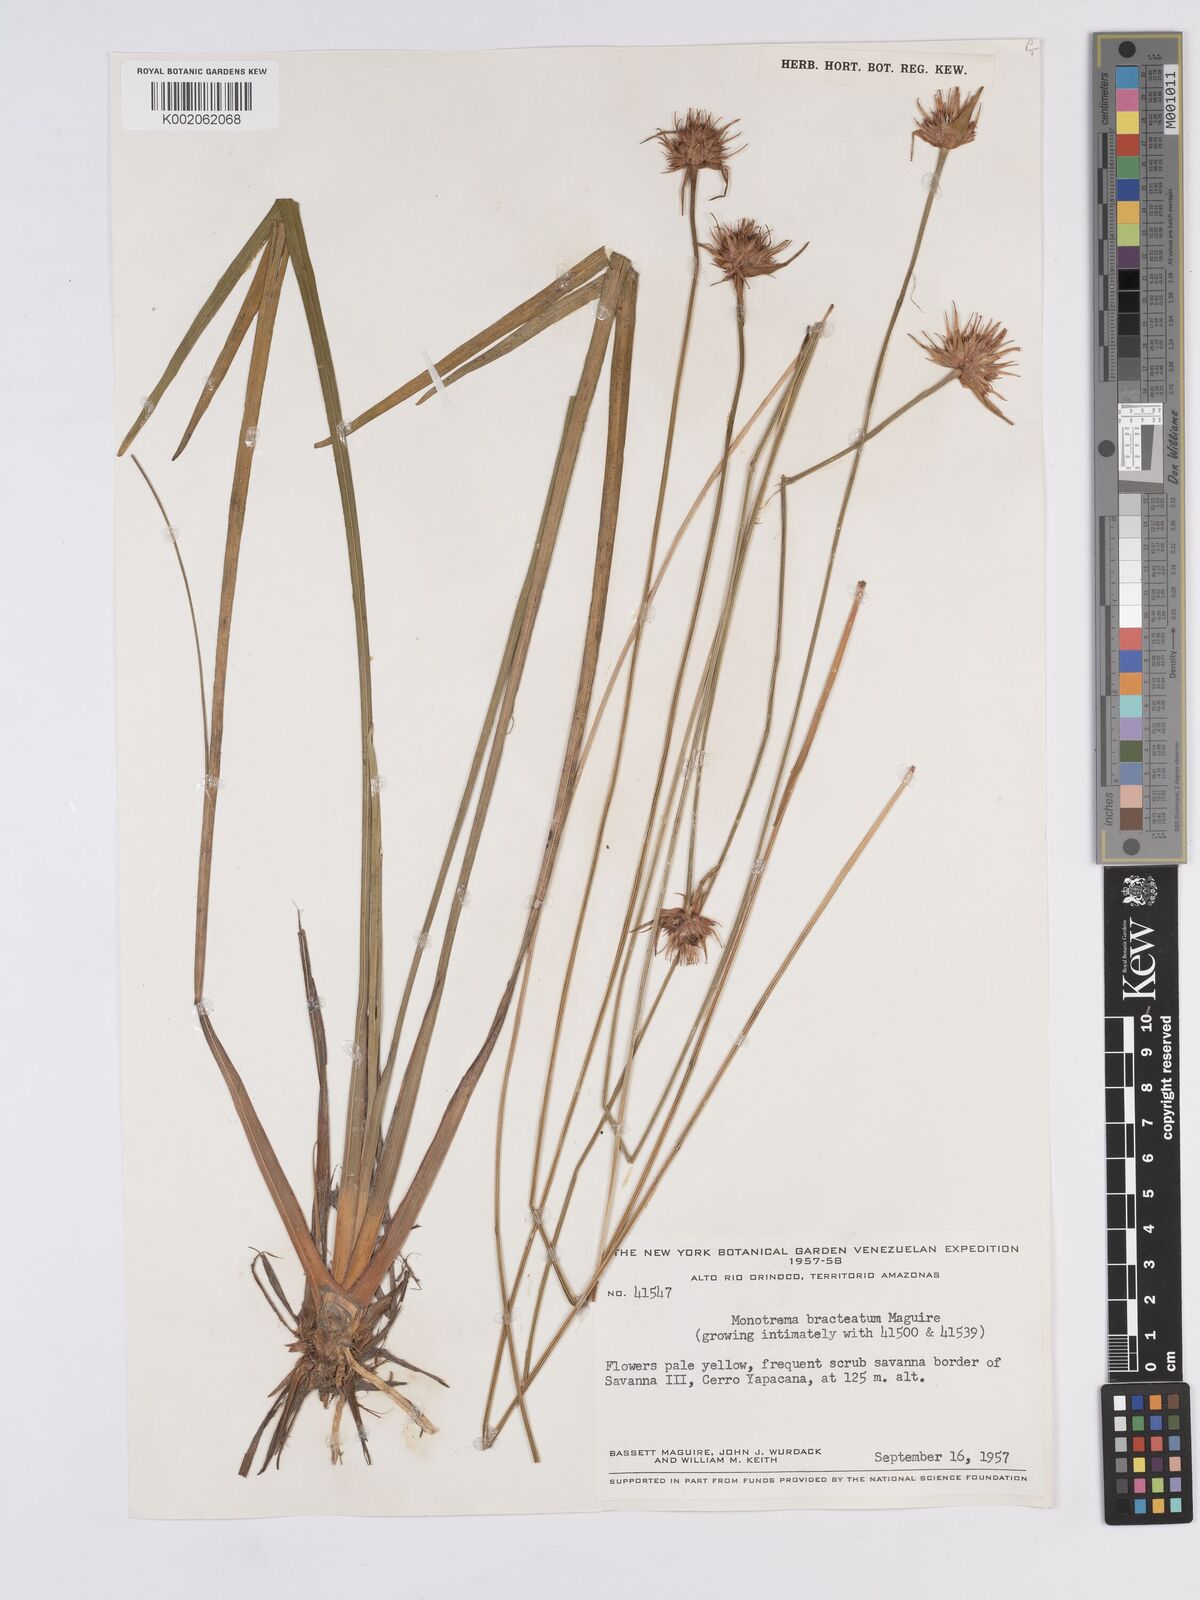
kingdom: Plantae
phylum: Tracheophyta
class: Liliopsida
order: Poales
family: Rapateaceae
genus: Monotrema
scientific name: Monotrema bracteatum
